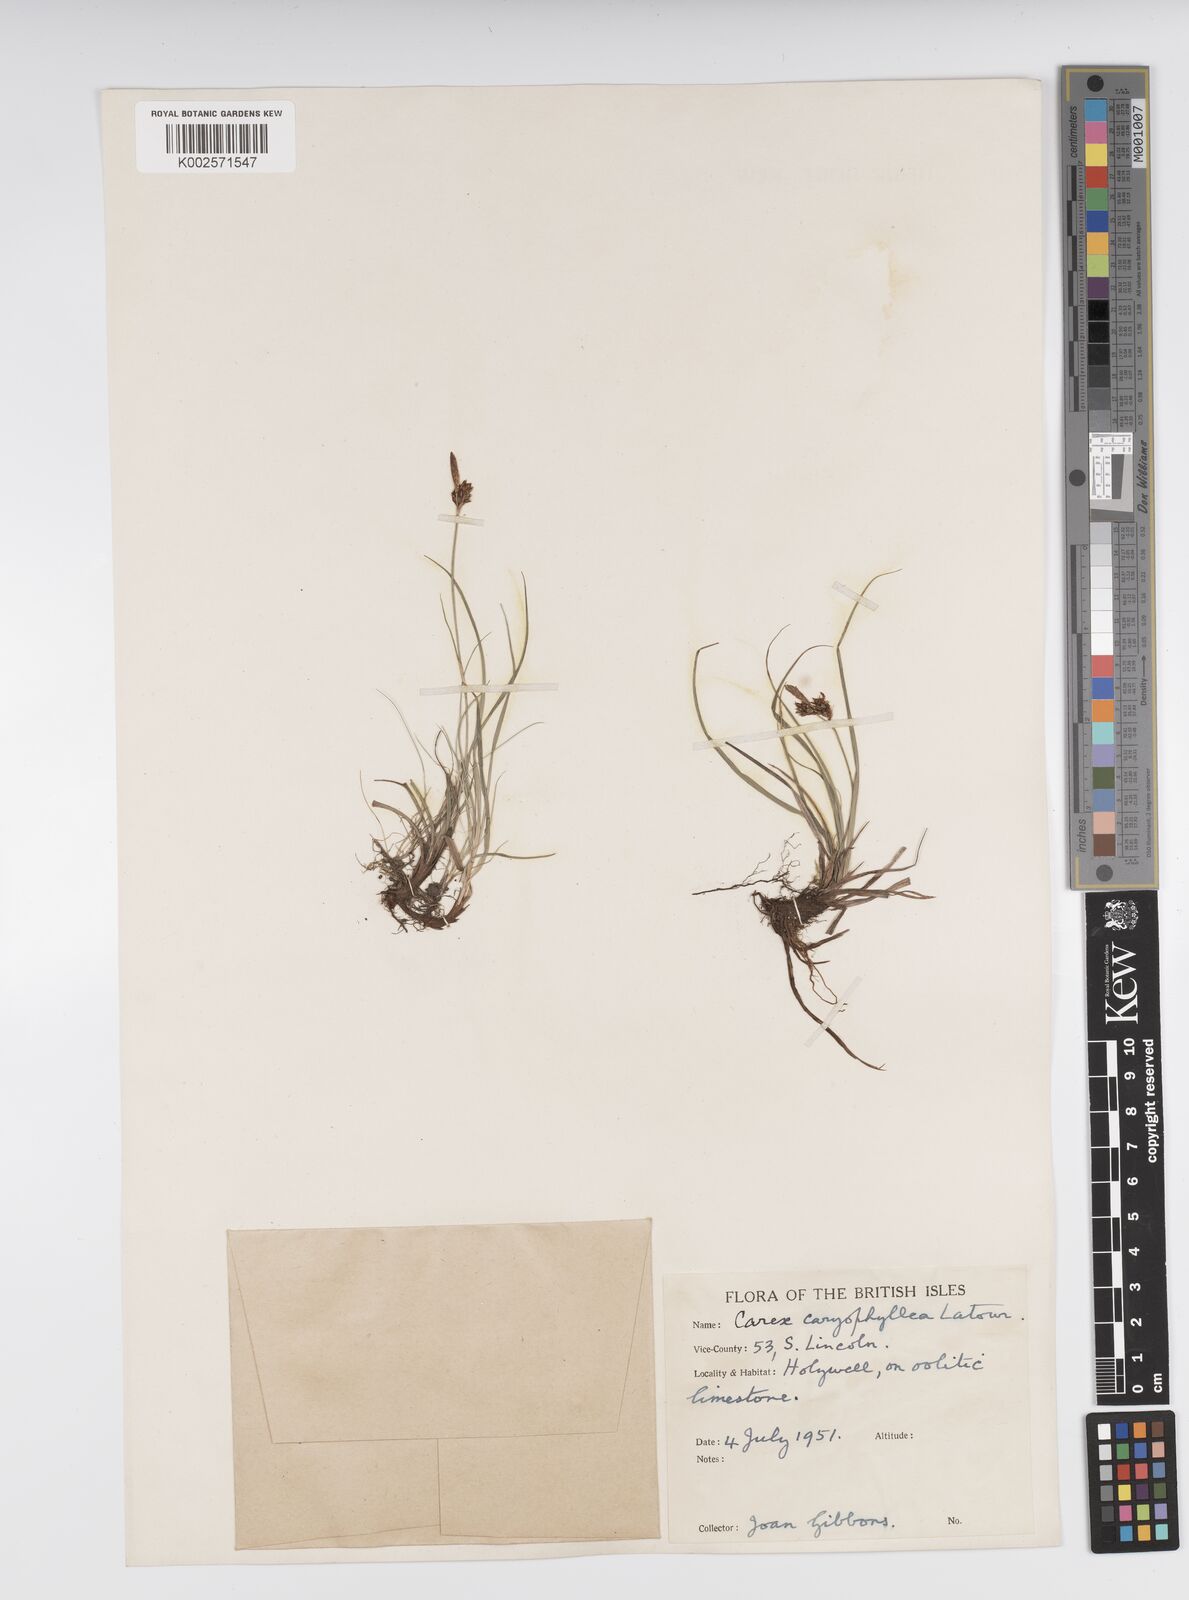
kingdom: Plantae
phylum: Tracheophyta
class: Liliopsida
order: Poales
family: Cyperaceae
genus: Carex
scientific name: Carex caryophyllea
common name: Spring sedge
